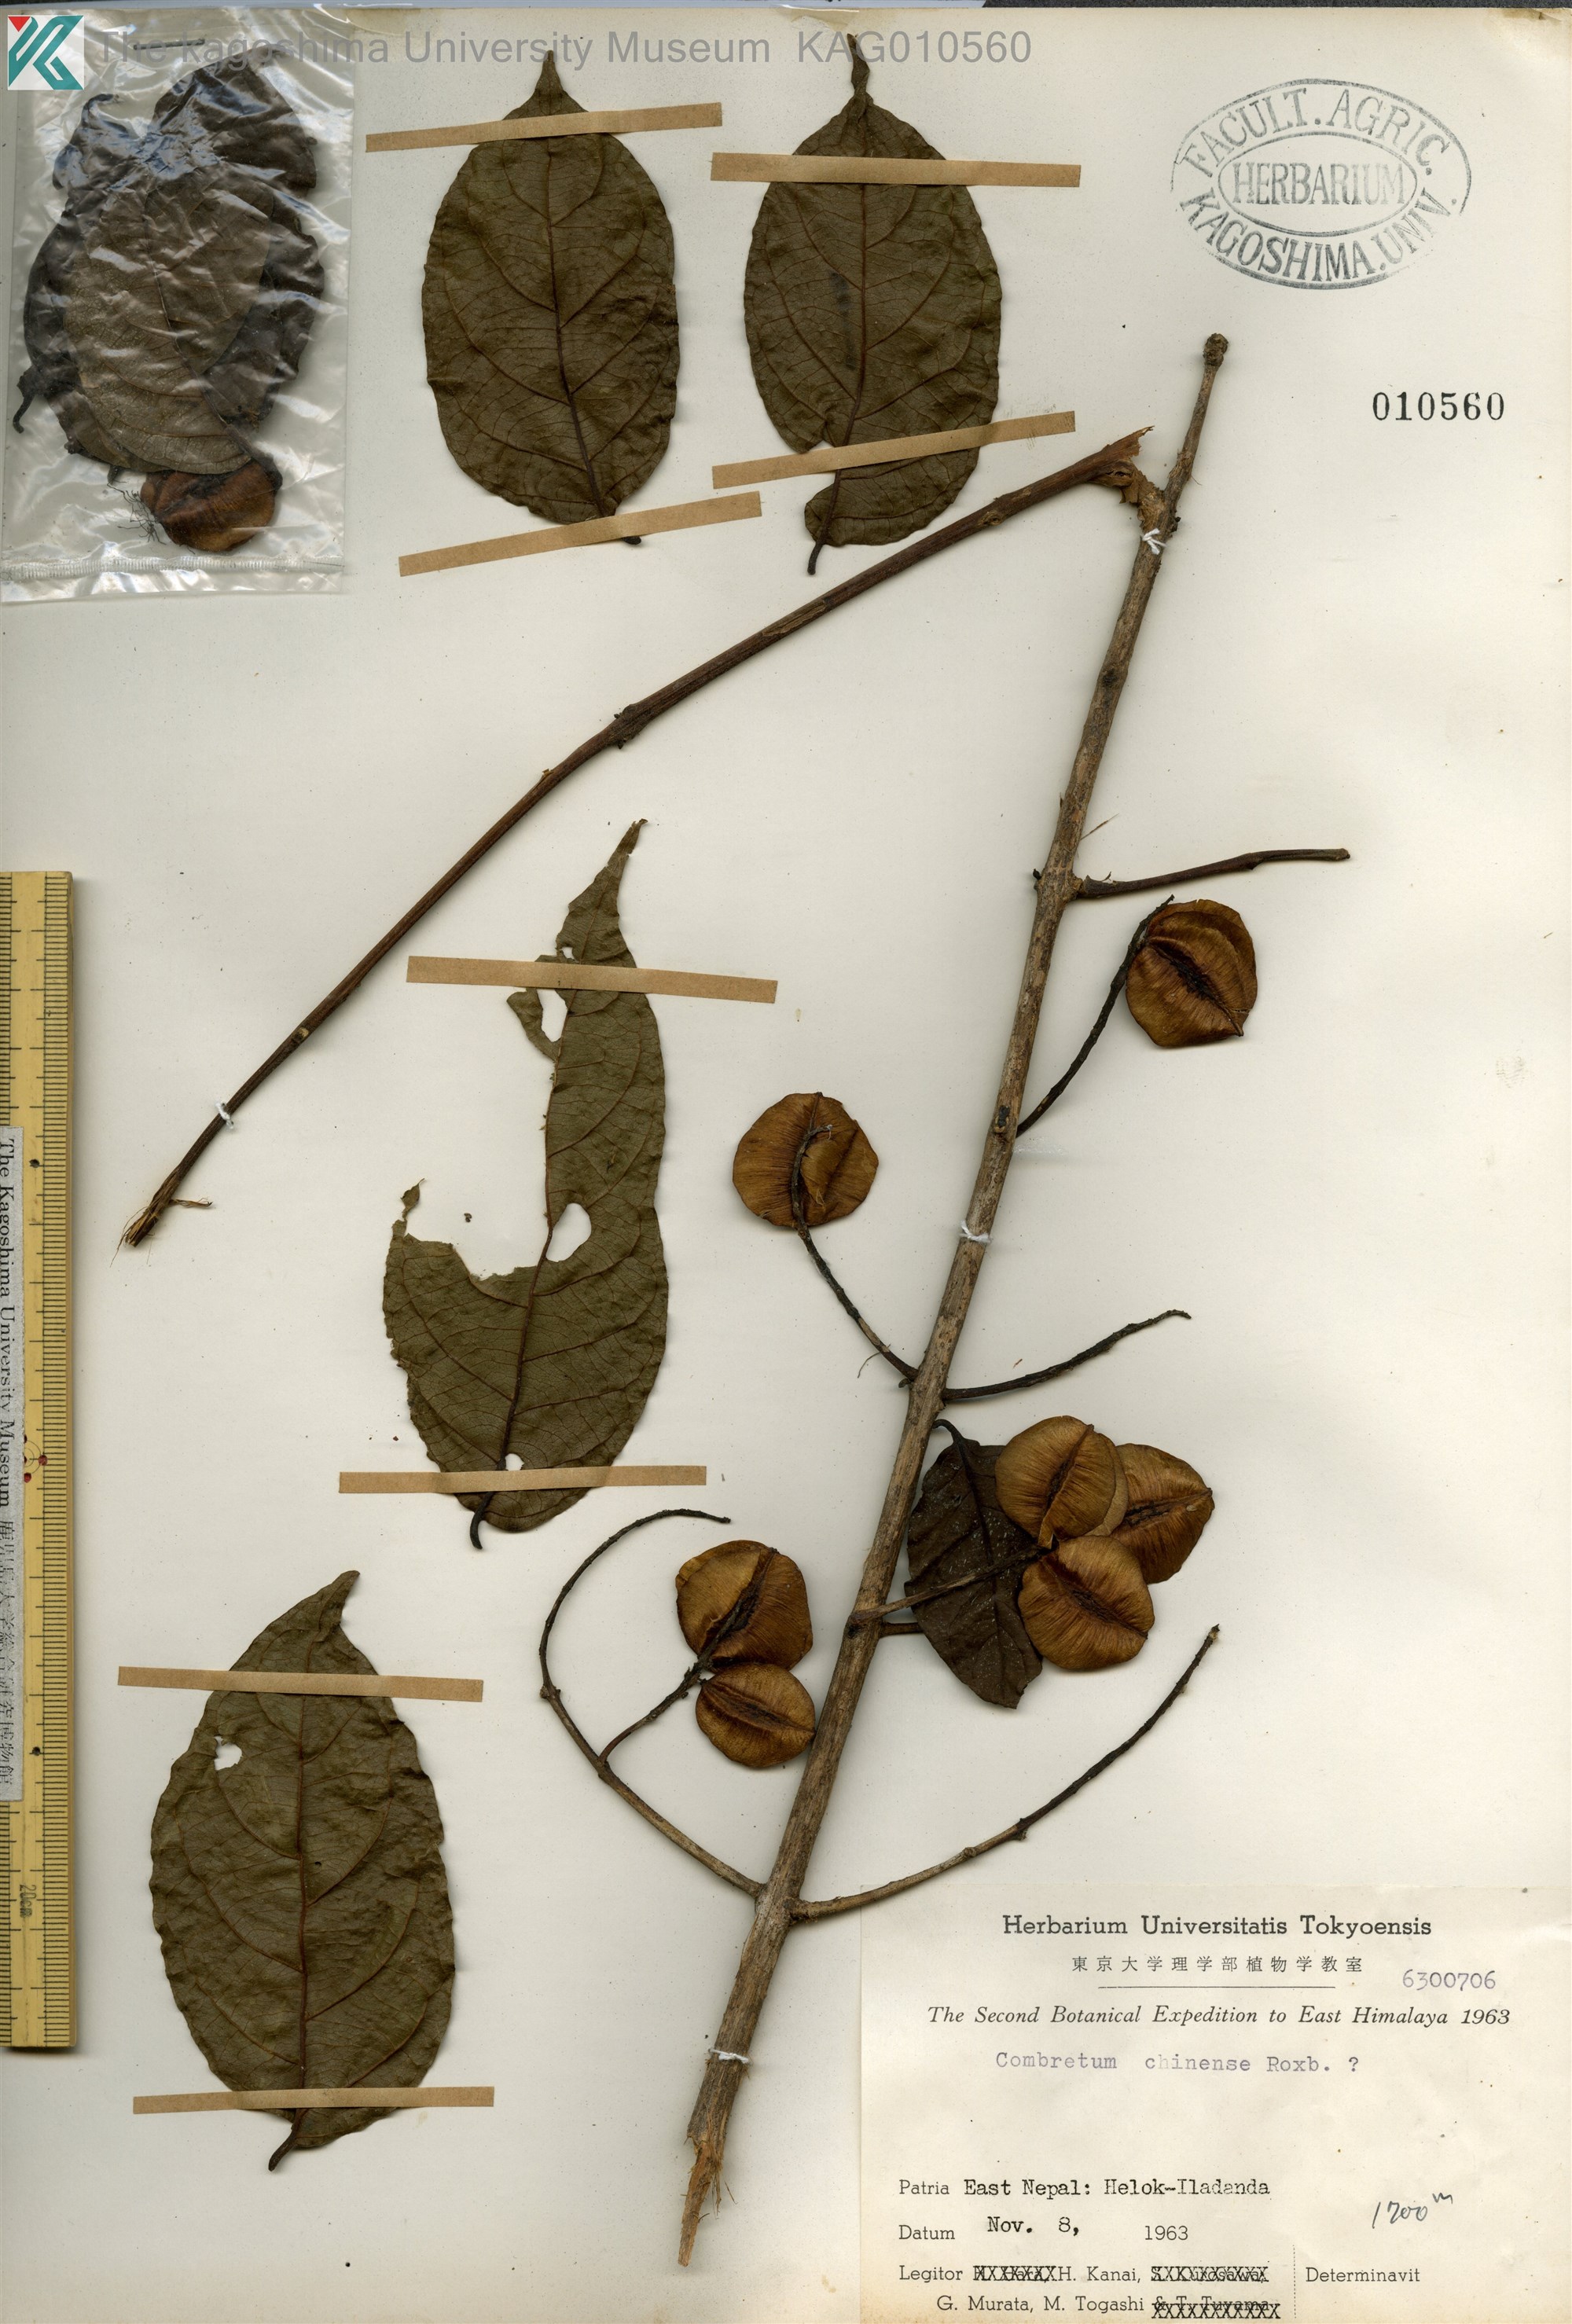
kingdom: Plantae
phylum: Tracheophyta
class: Magnoliopsida
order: Myrtales
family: Combretaceae
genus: Combretum
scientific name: Combretum chinense
